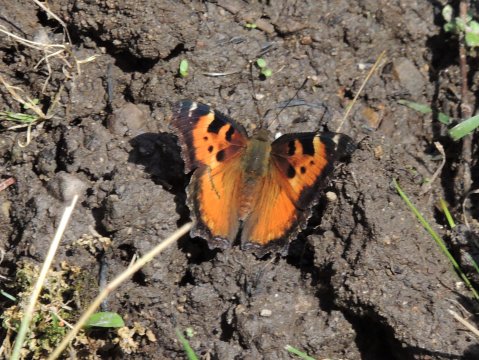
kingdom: Animalia
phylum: Arthropoda
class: Insecta
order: Lepidoptera
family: Nymphalidae
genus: Nymphalis
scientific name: Nymphalis californica
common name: California Tortoiseshell
